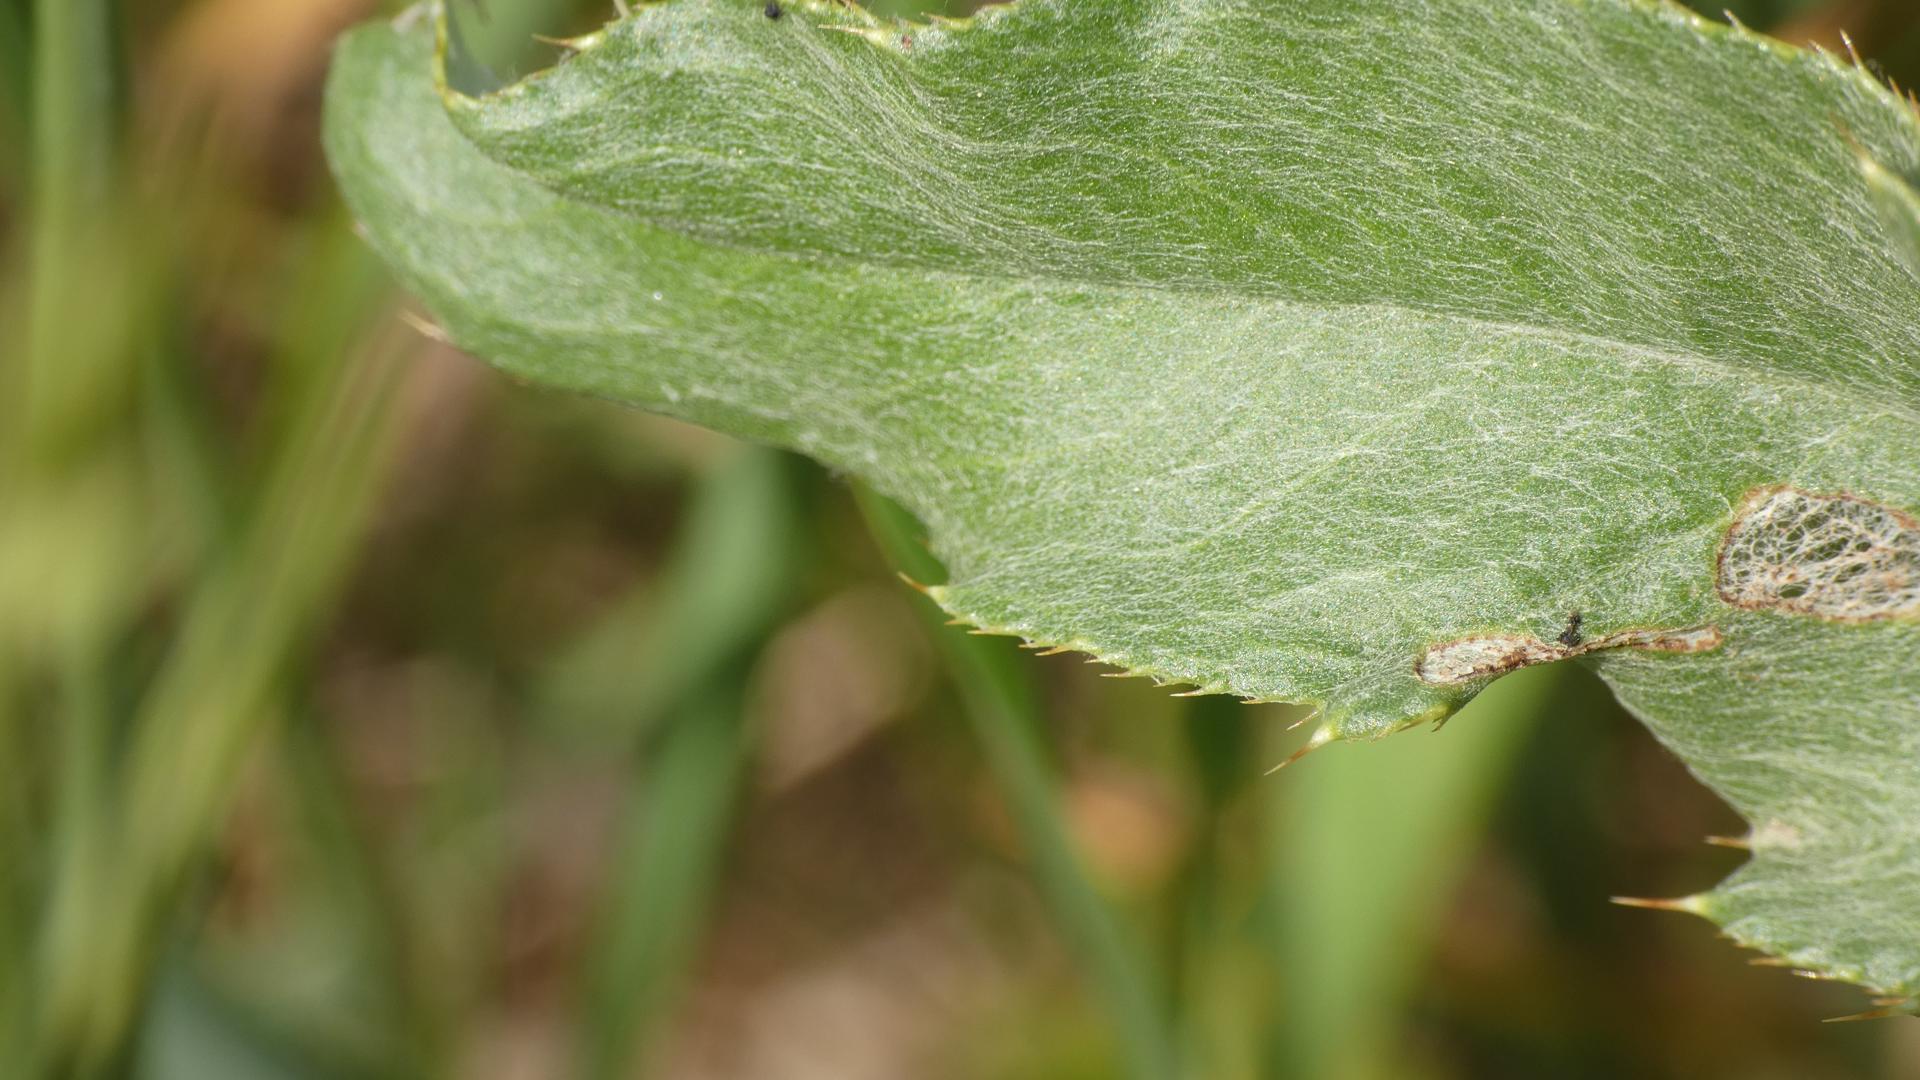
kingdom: Plantae
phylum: Tracheophyta
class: Magnoliopsida
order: Asterales
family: Asteraceae
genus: Cirsium
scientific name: Cirsium arvense
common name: Ager-tidsel
